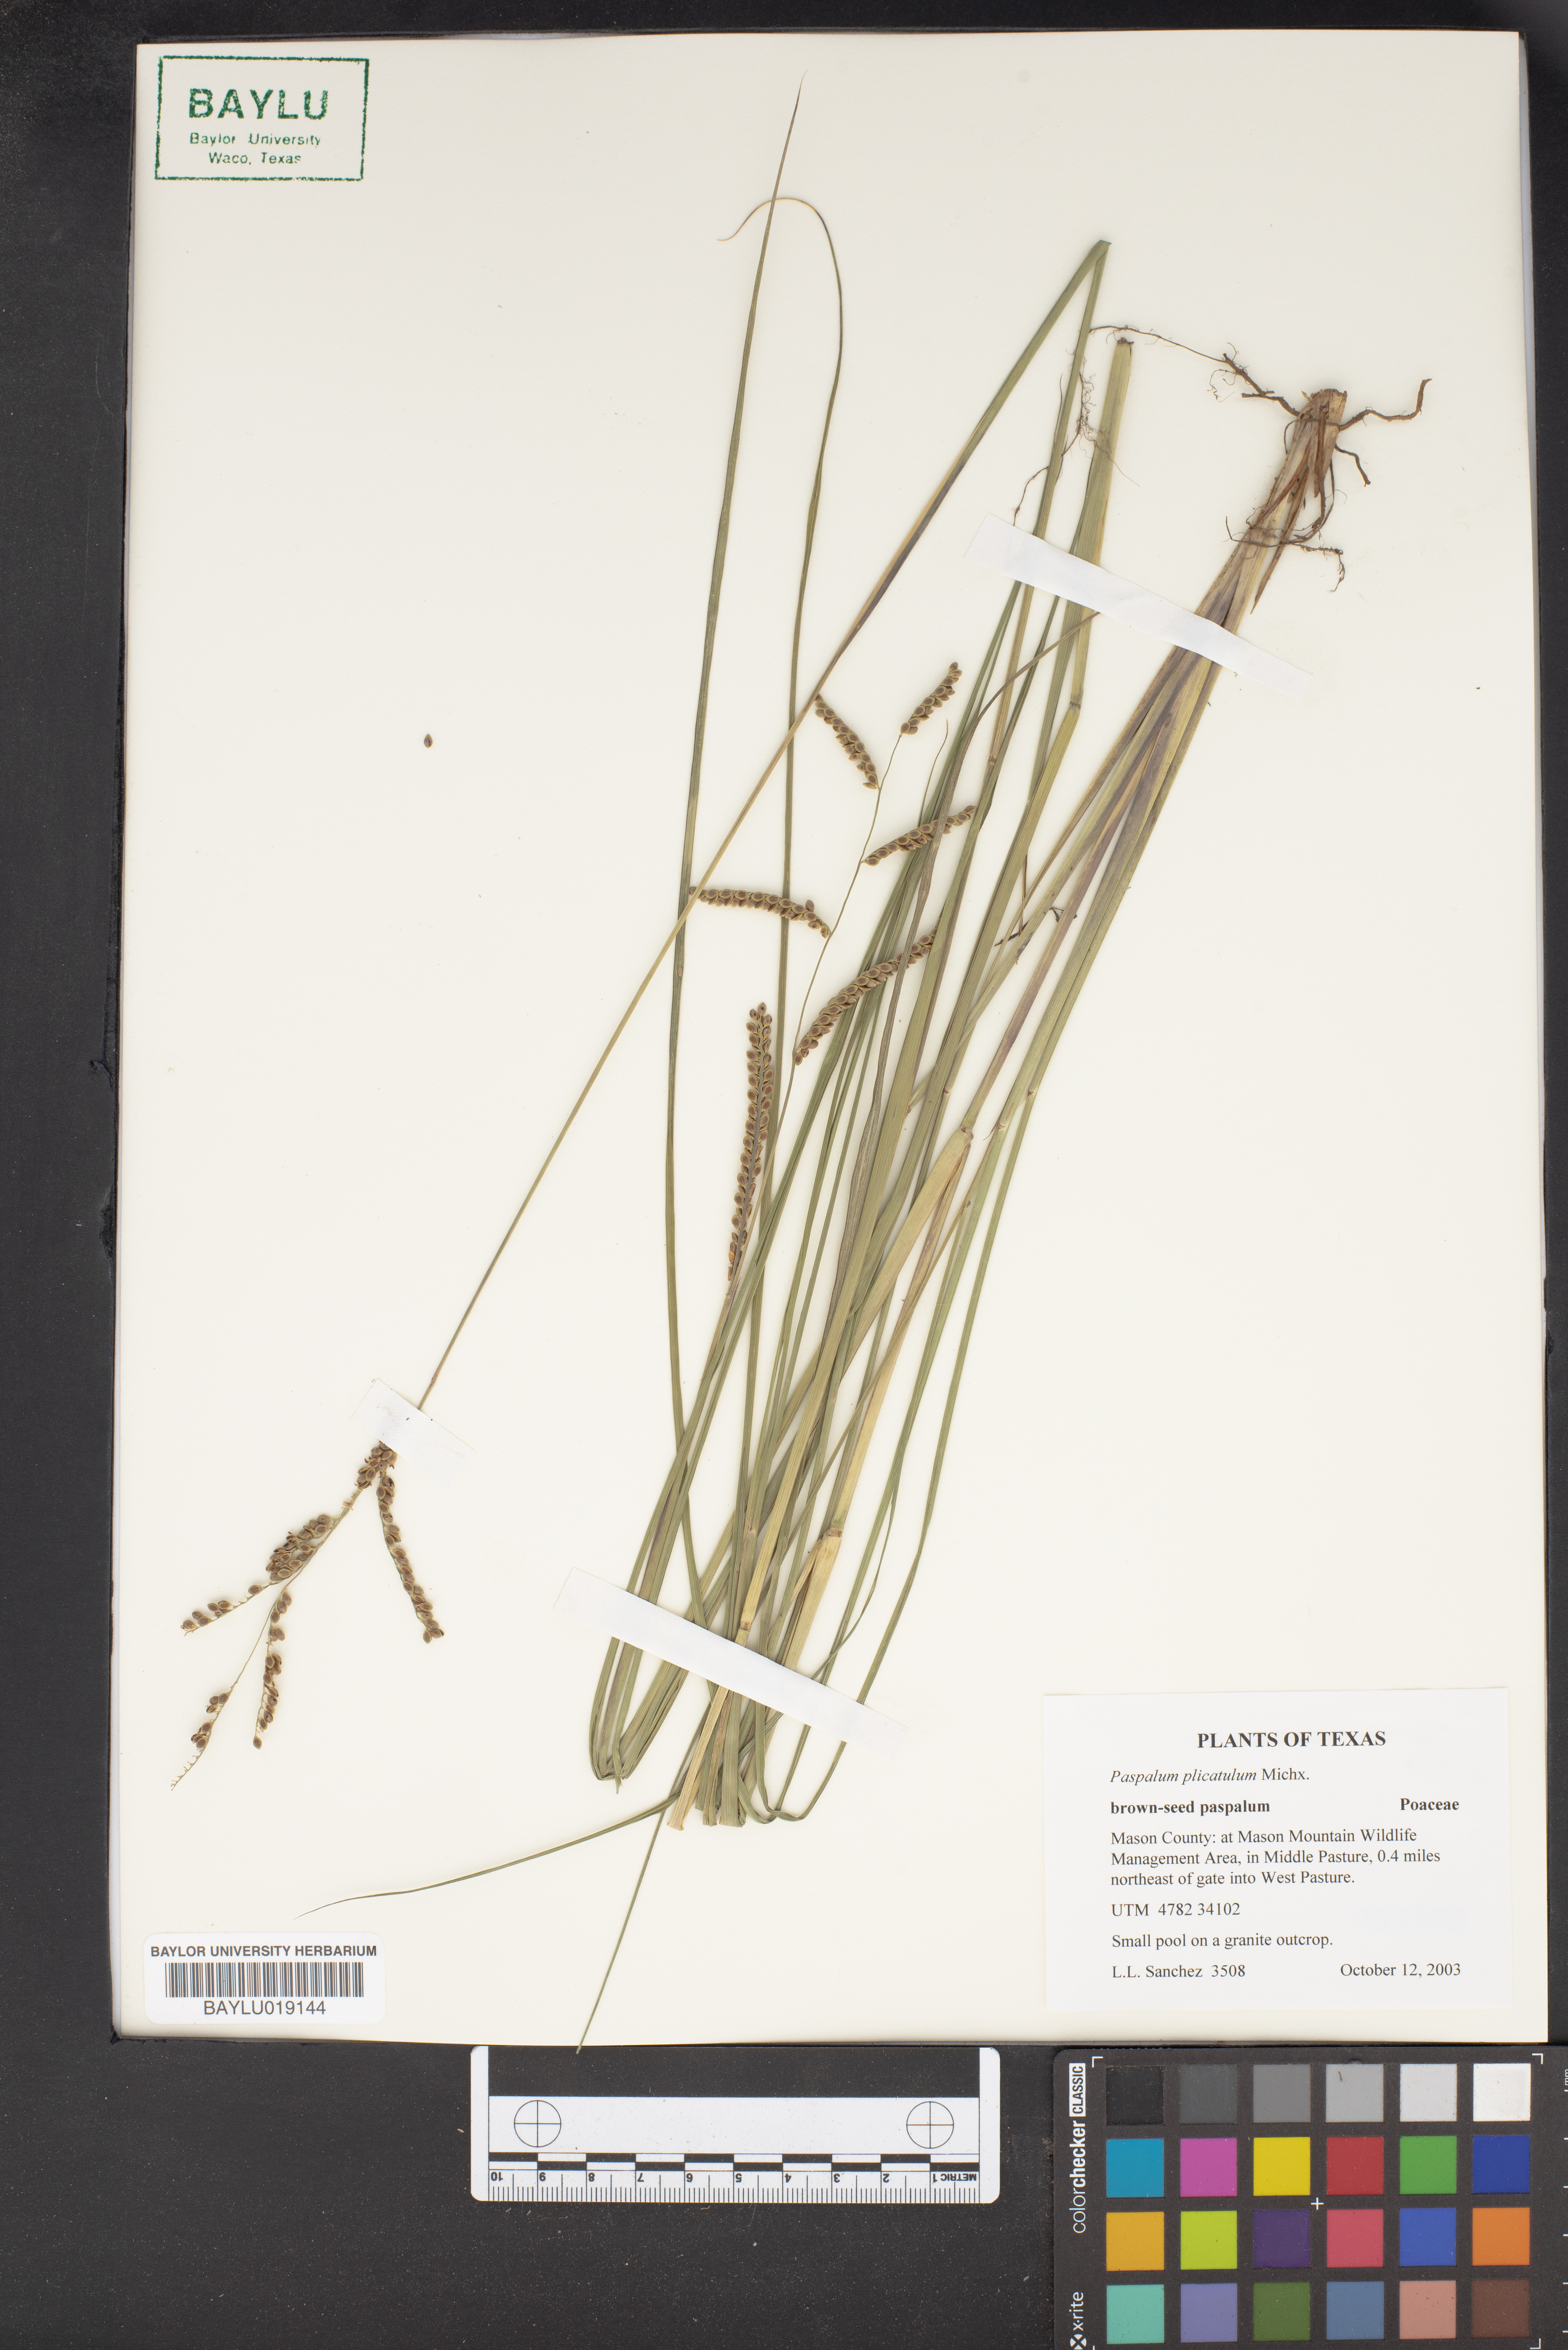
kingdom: Plantae
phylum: Tracheophyta
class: Liliopsida
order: Poales
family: Poaceae
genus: Paspalum
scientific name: Paspalum plicatulum
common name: Top paspalum
